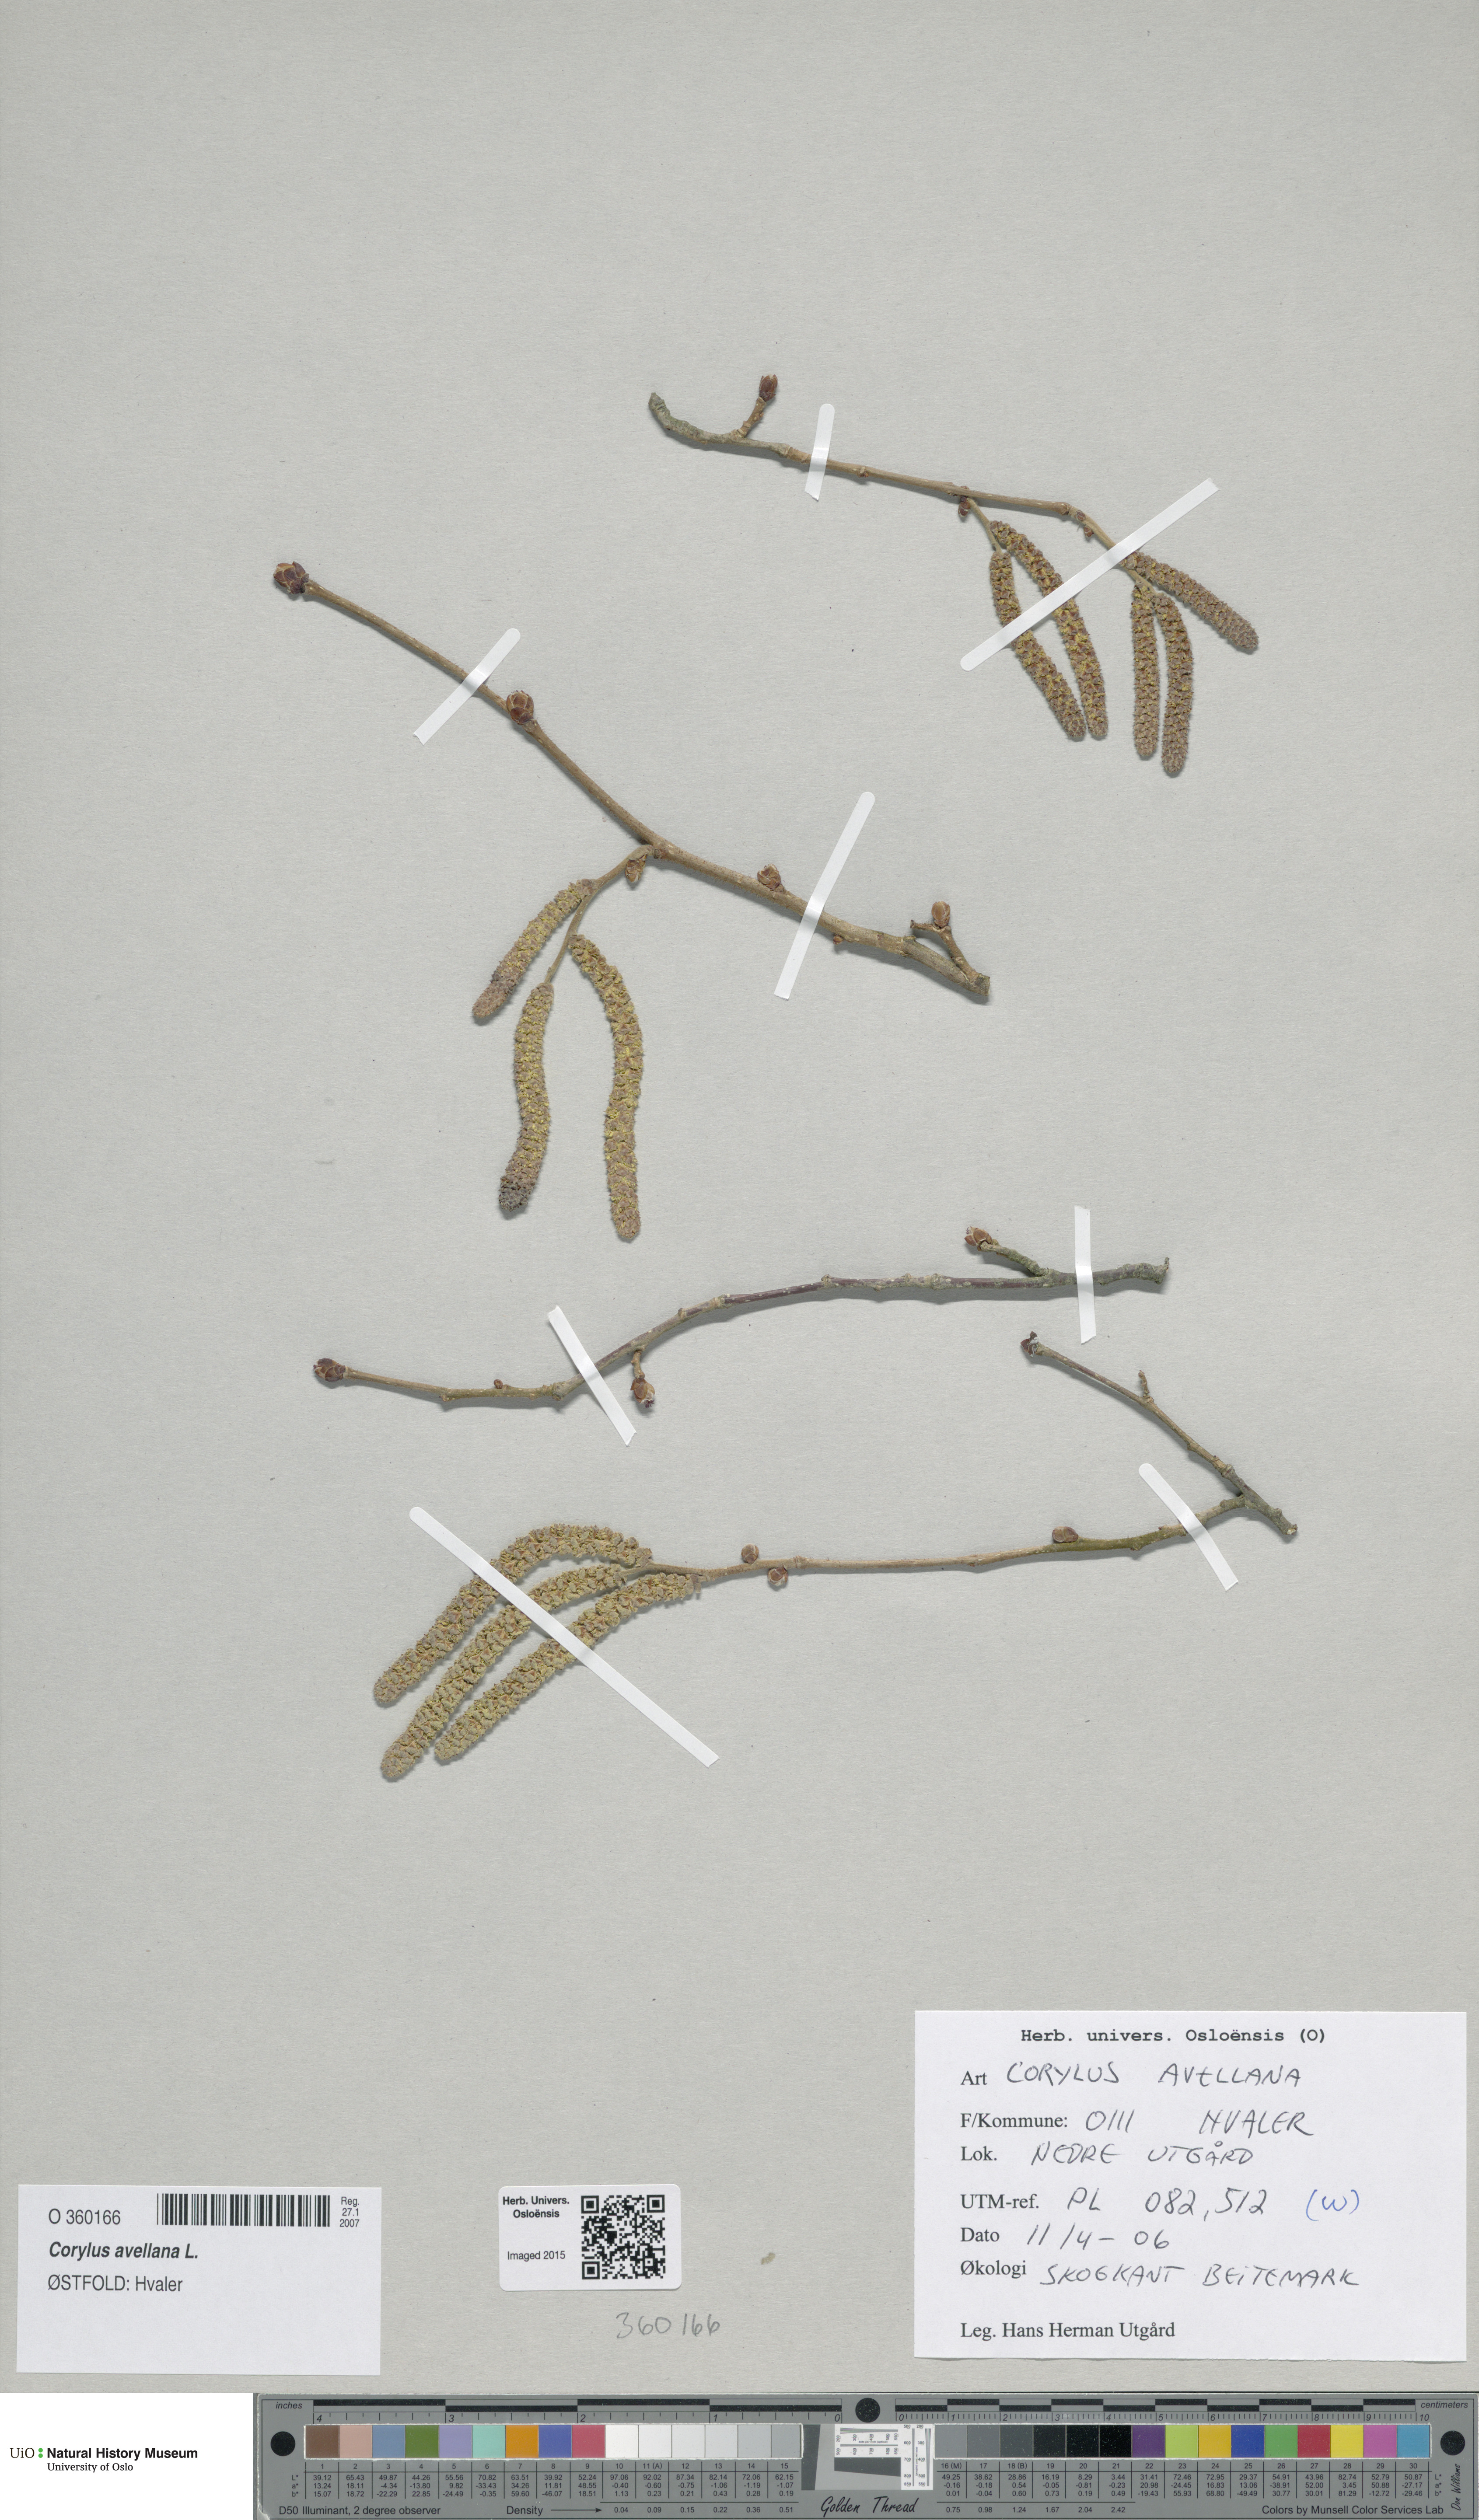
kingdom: Plantae
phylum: Tracheophyta
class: Magnoliopsida
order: Fagales
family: Betulaceae
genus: Corylus
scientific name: Corylus avellana
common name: European hazel
